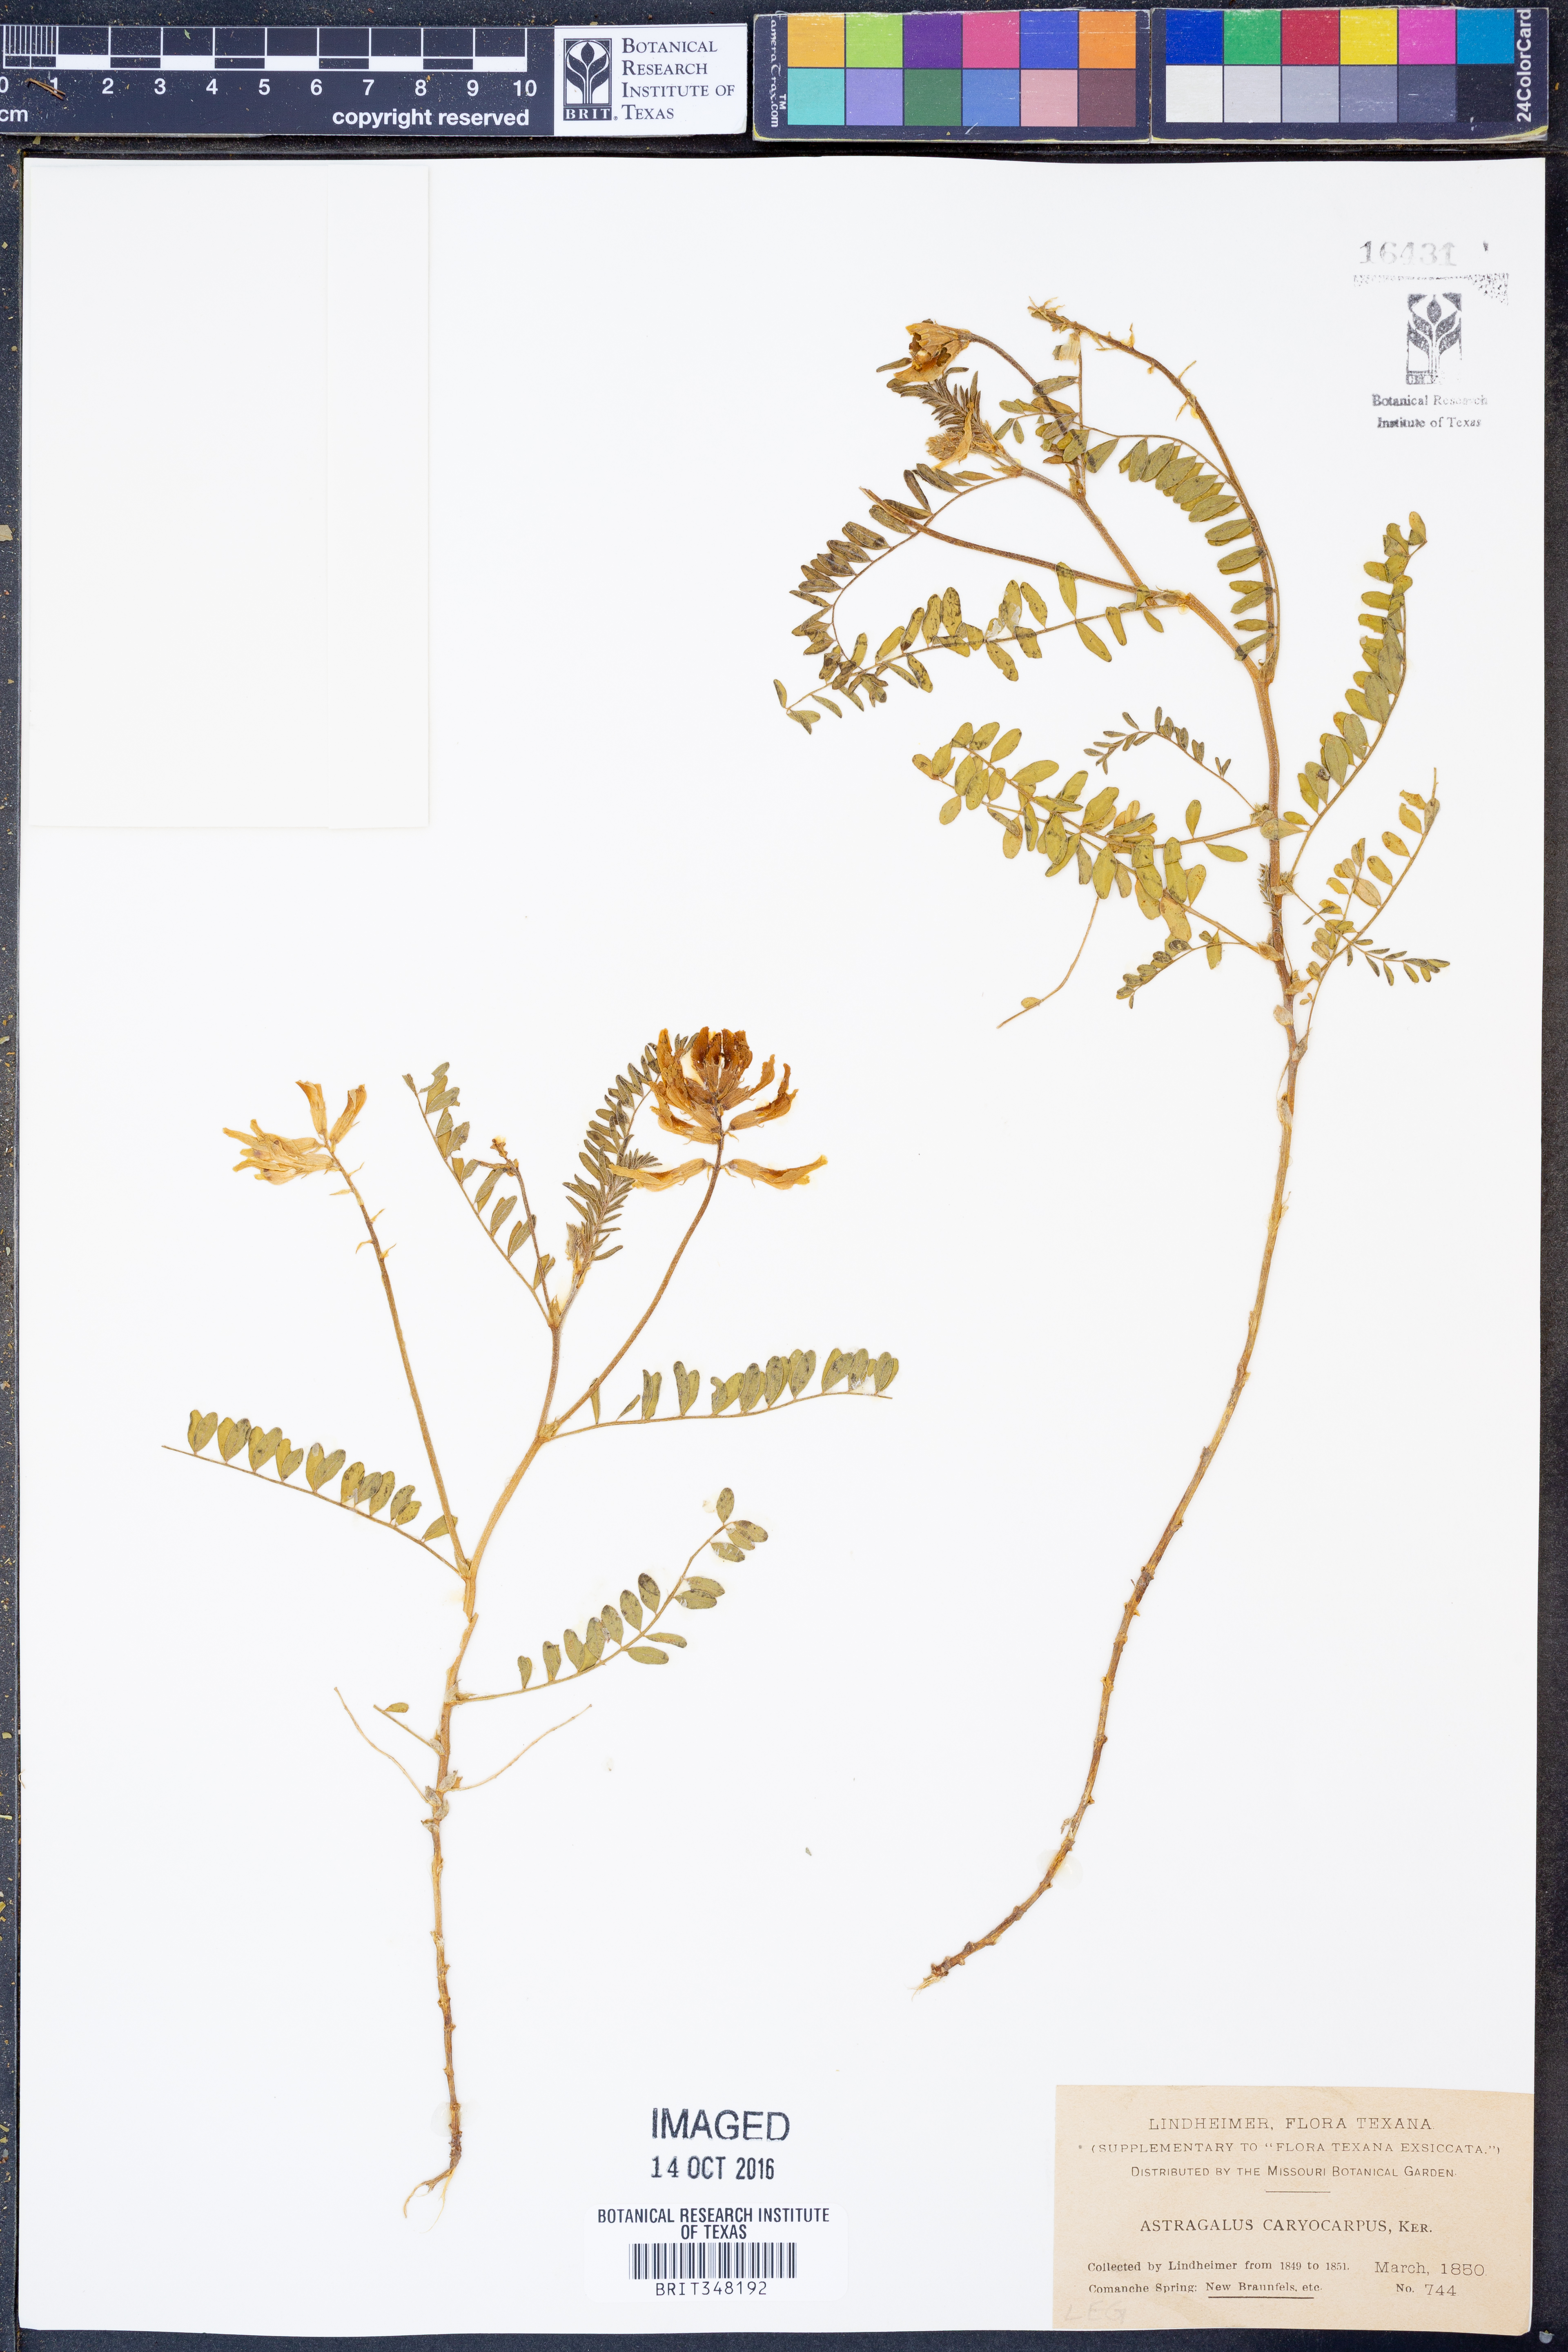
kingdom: Plantae
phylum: Tracheophyta
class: Magnoliopsida
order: Fabales
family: Fabaceae
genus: Astragalus
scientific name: Astragalus crassicarpus
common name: Ground-plum milk-vetch
